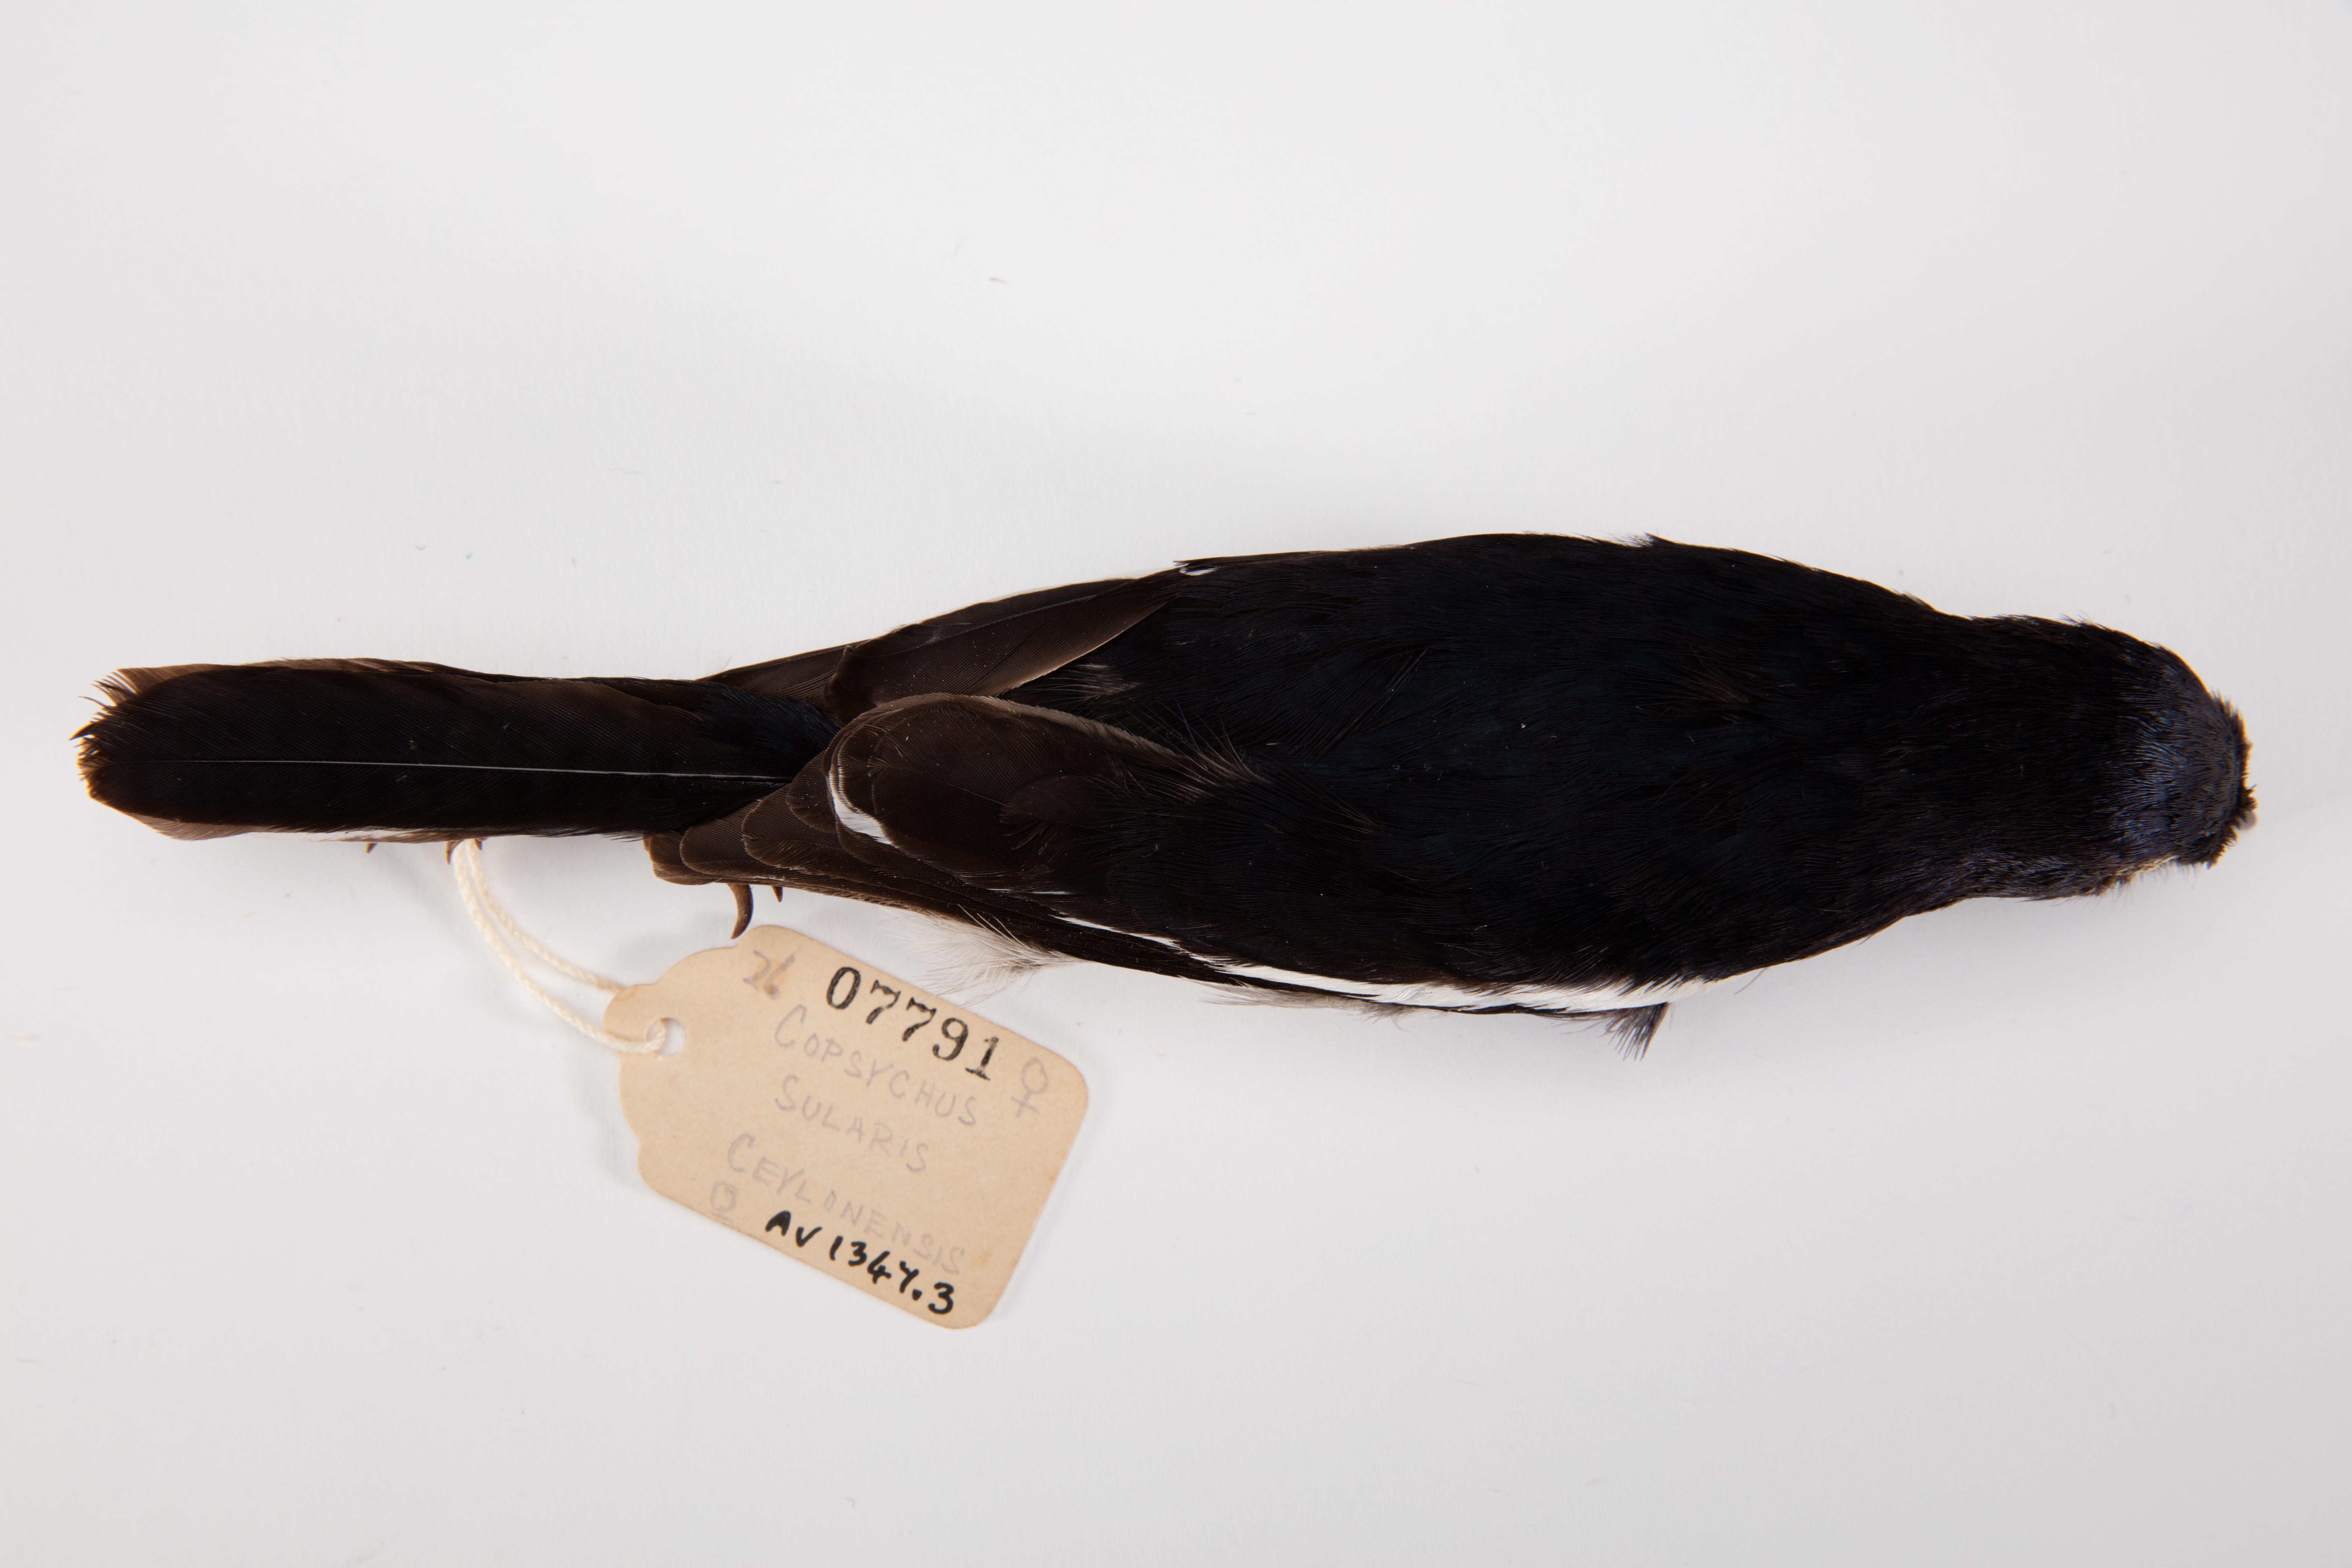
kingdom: Animalia
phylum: Chordata
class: Aves
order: Passeriformes
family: Muscicapidae
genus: Copsychus
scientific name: Copsychus saularis
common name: Oriental magpie-robin
